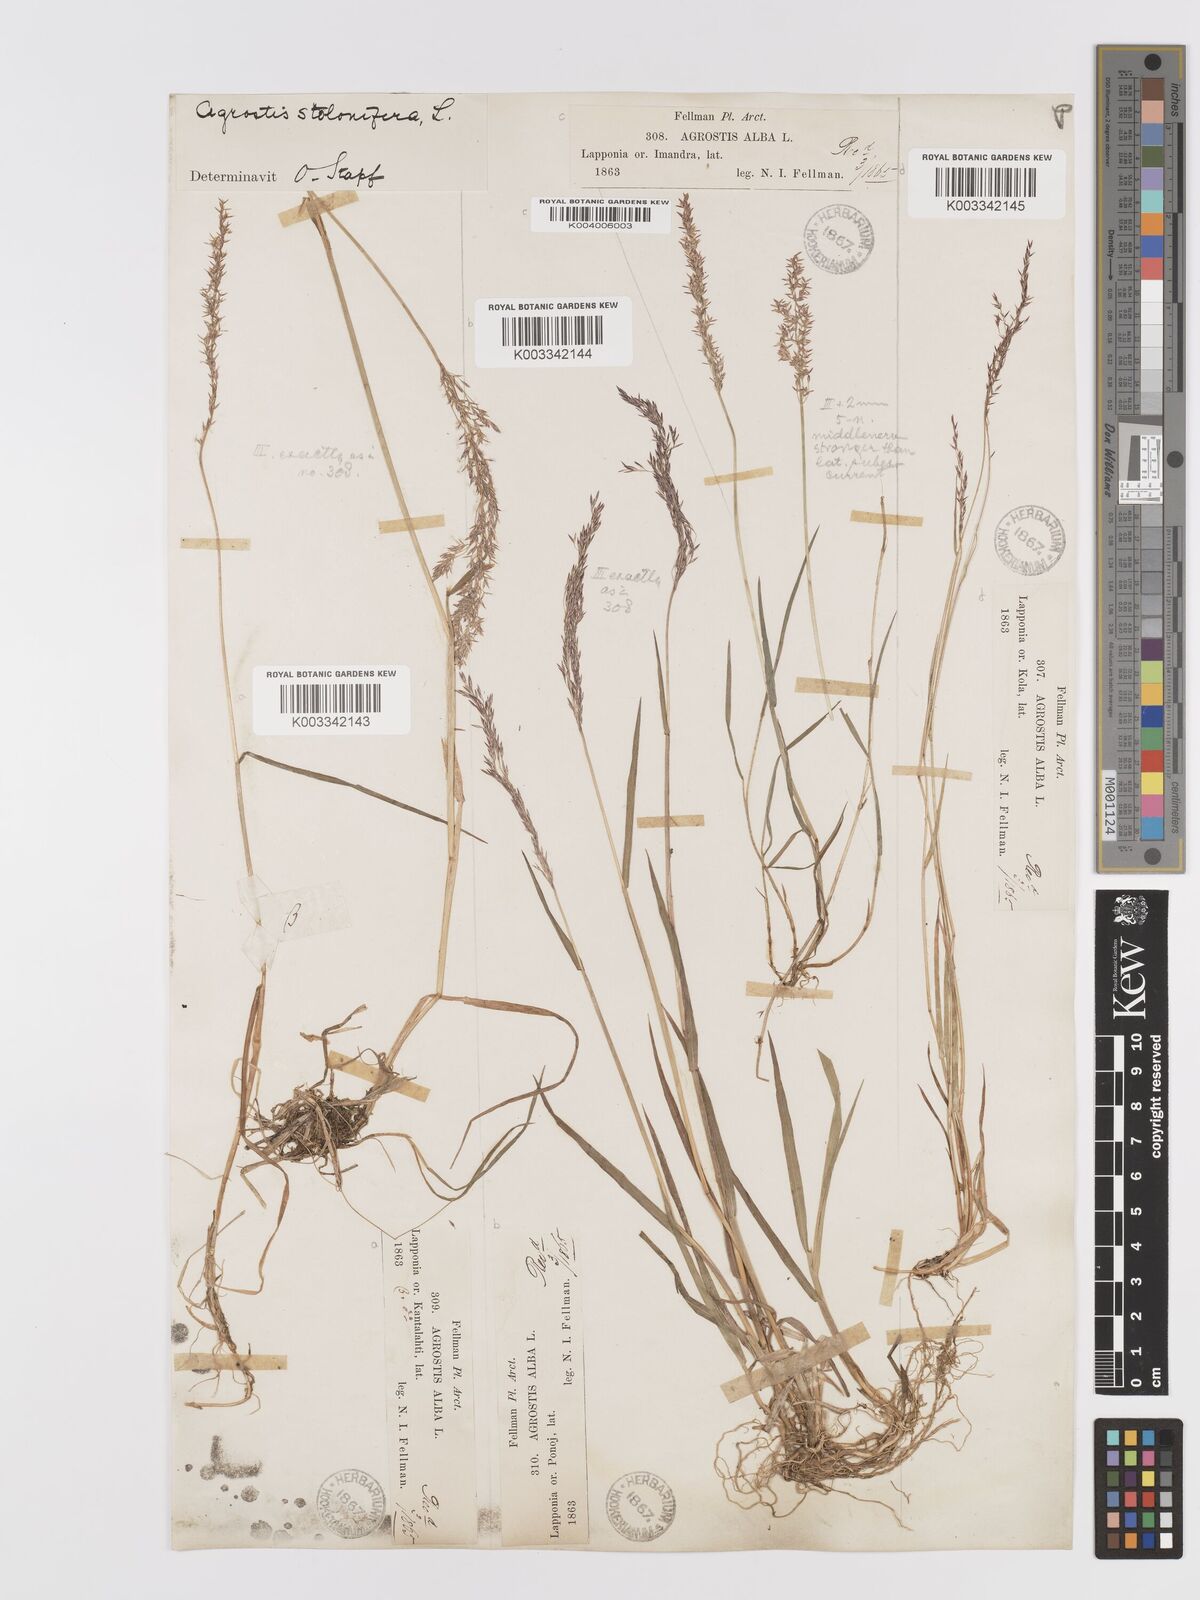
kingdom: Plantae
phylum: Tracheophyta
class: Liliopsida
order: Poales
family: Poaceae
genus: Agrostis
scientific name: Agrostis stolonifera
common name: Creeping bentgrass
